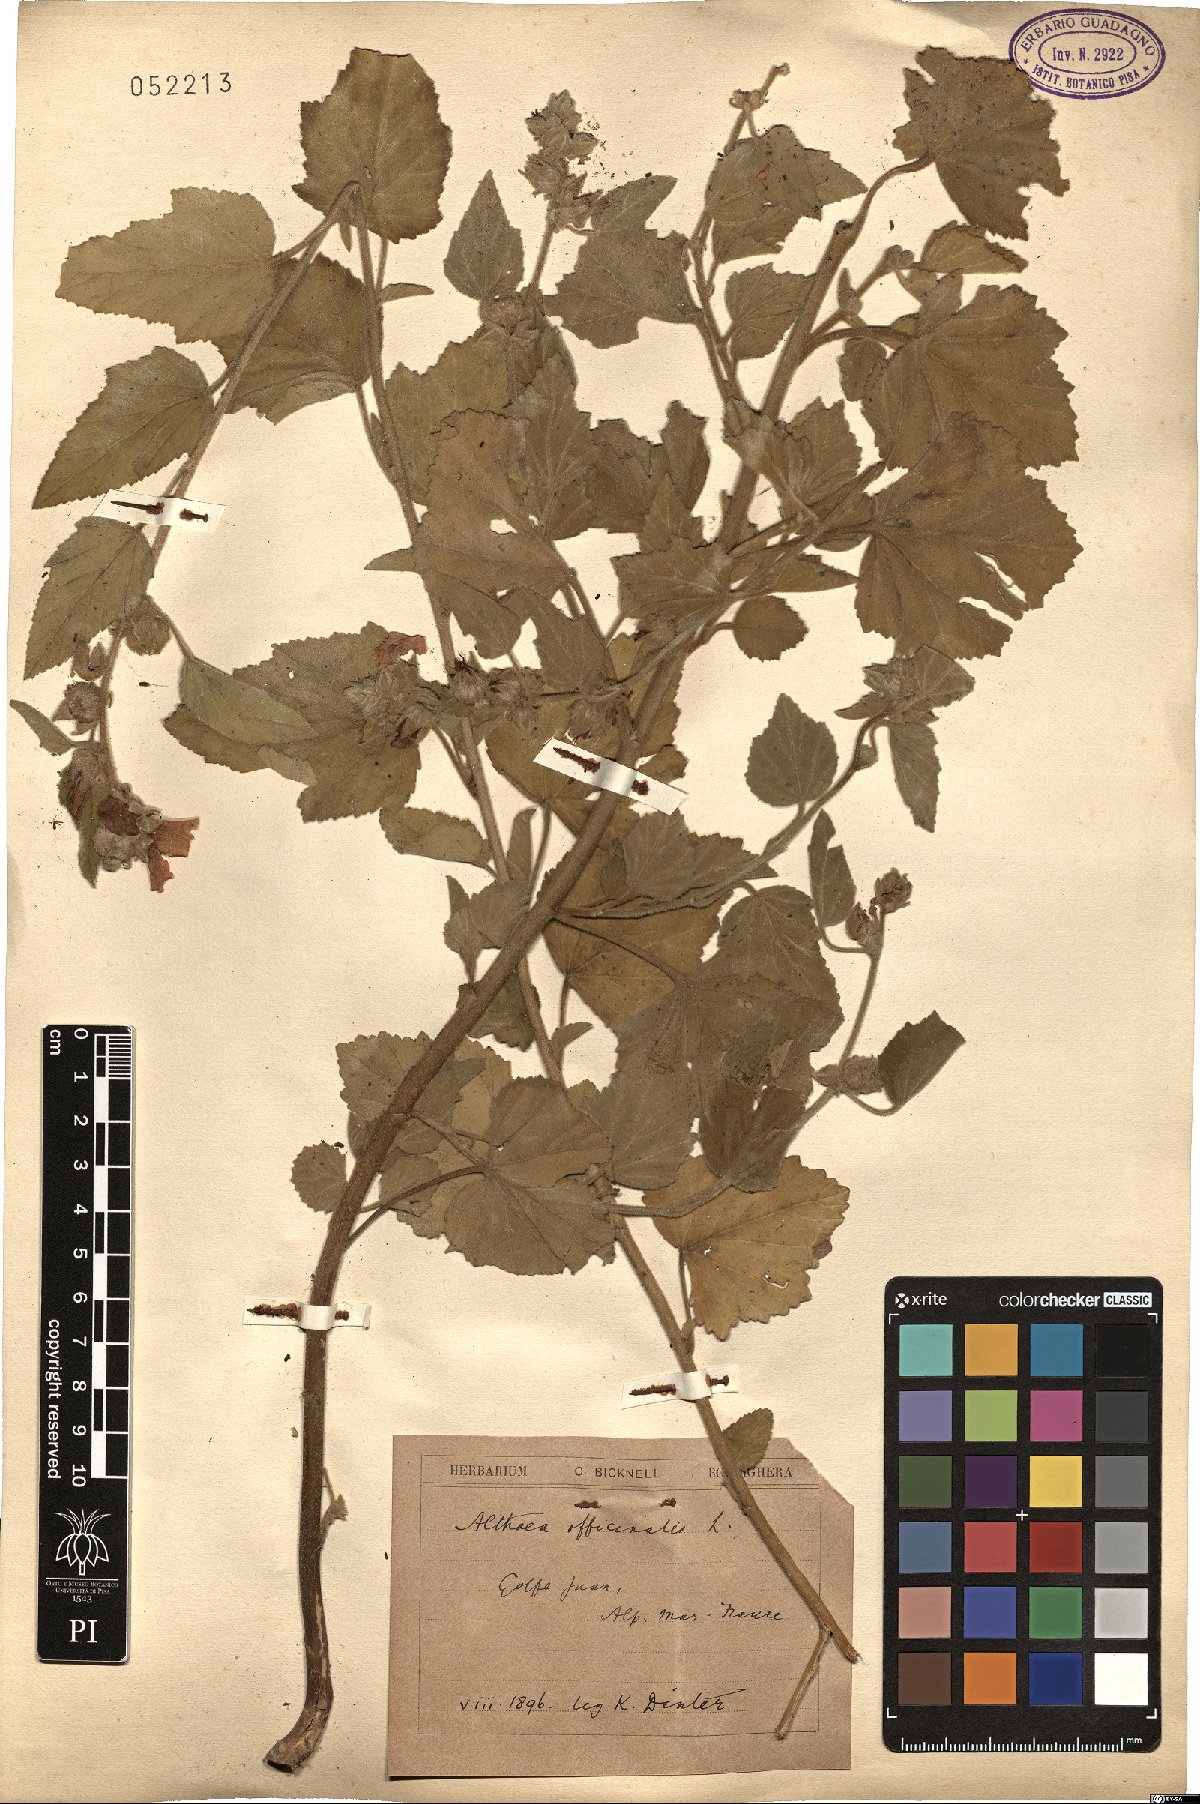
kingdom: Plantae
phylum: Tracheophyta
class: Magnoliopsida
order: Malvales
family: Malvaceae
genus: Althaea
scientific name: Althaea officinalis
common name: Marsh-mallow
